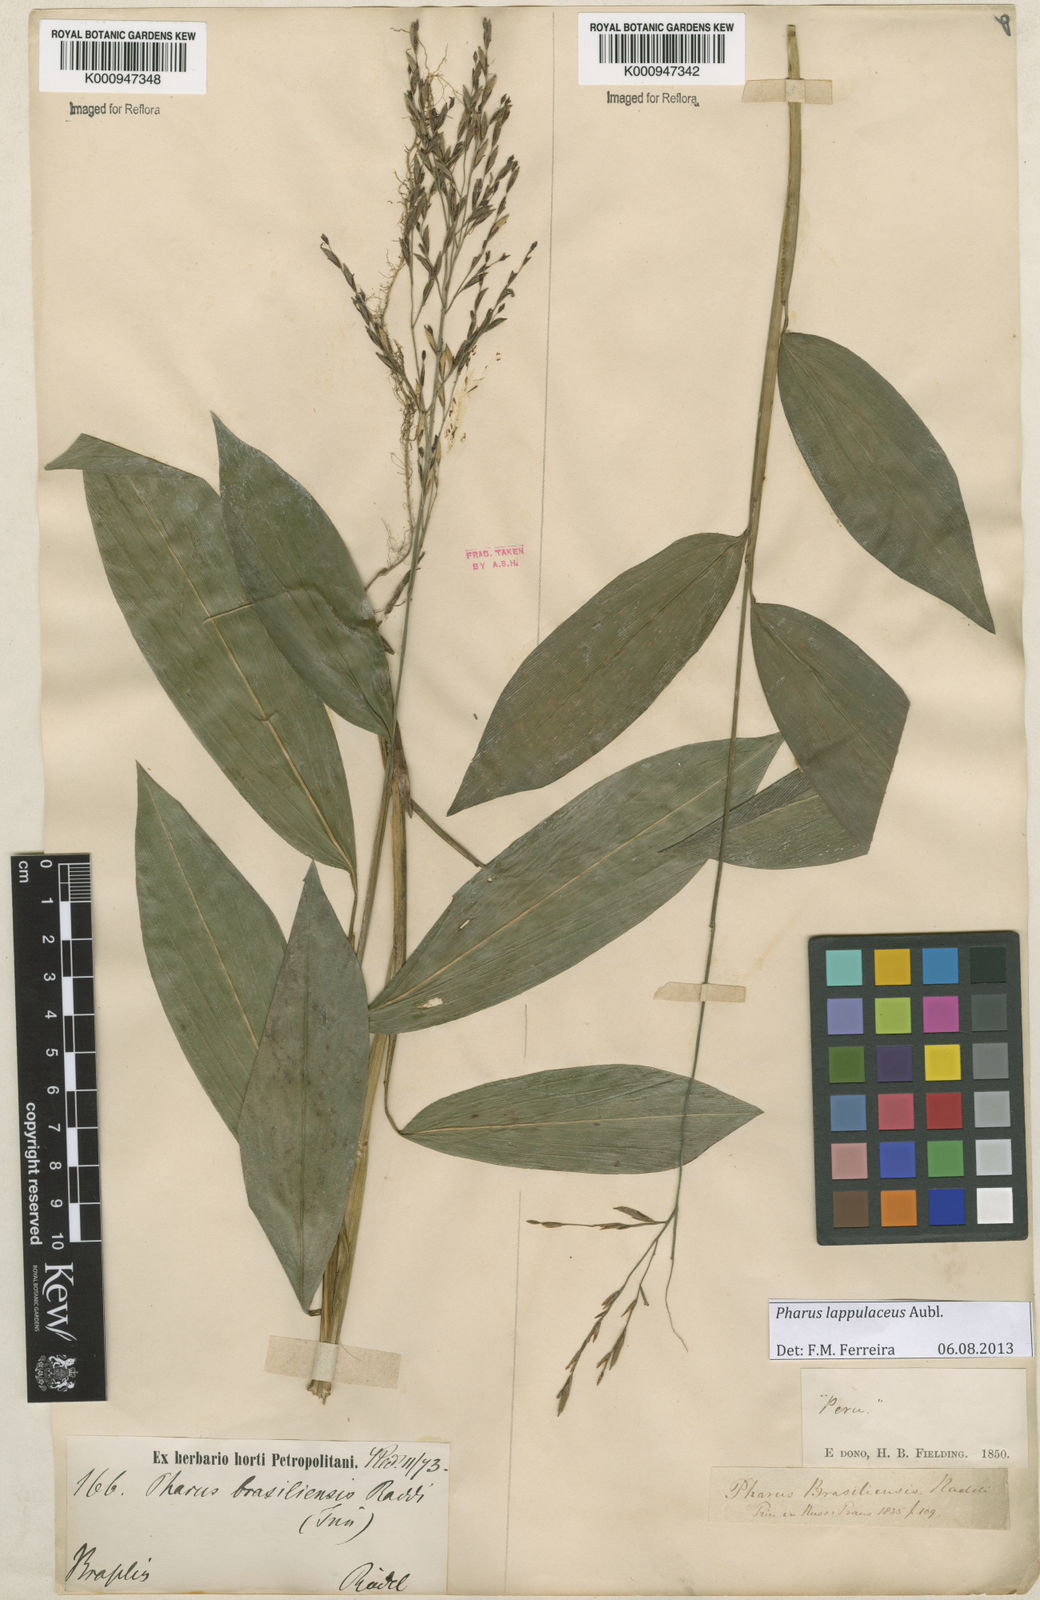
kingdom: Plantae
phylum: Tracheophyta
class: Liliopsida
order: Poales
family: Poaceae
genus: Pharus
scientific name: Pharus lappulaceus
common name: Creeping leafstalk grass
